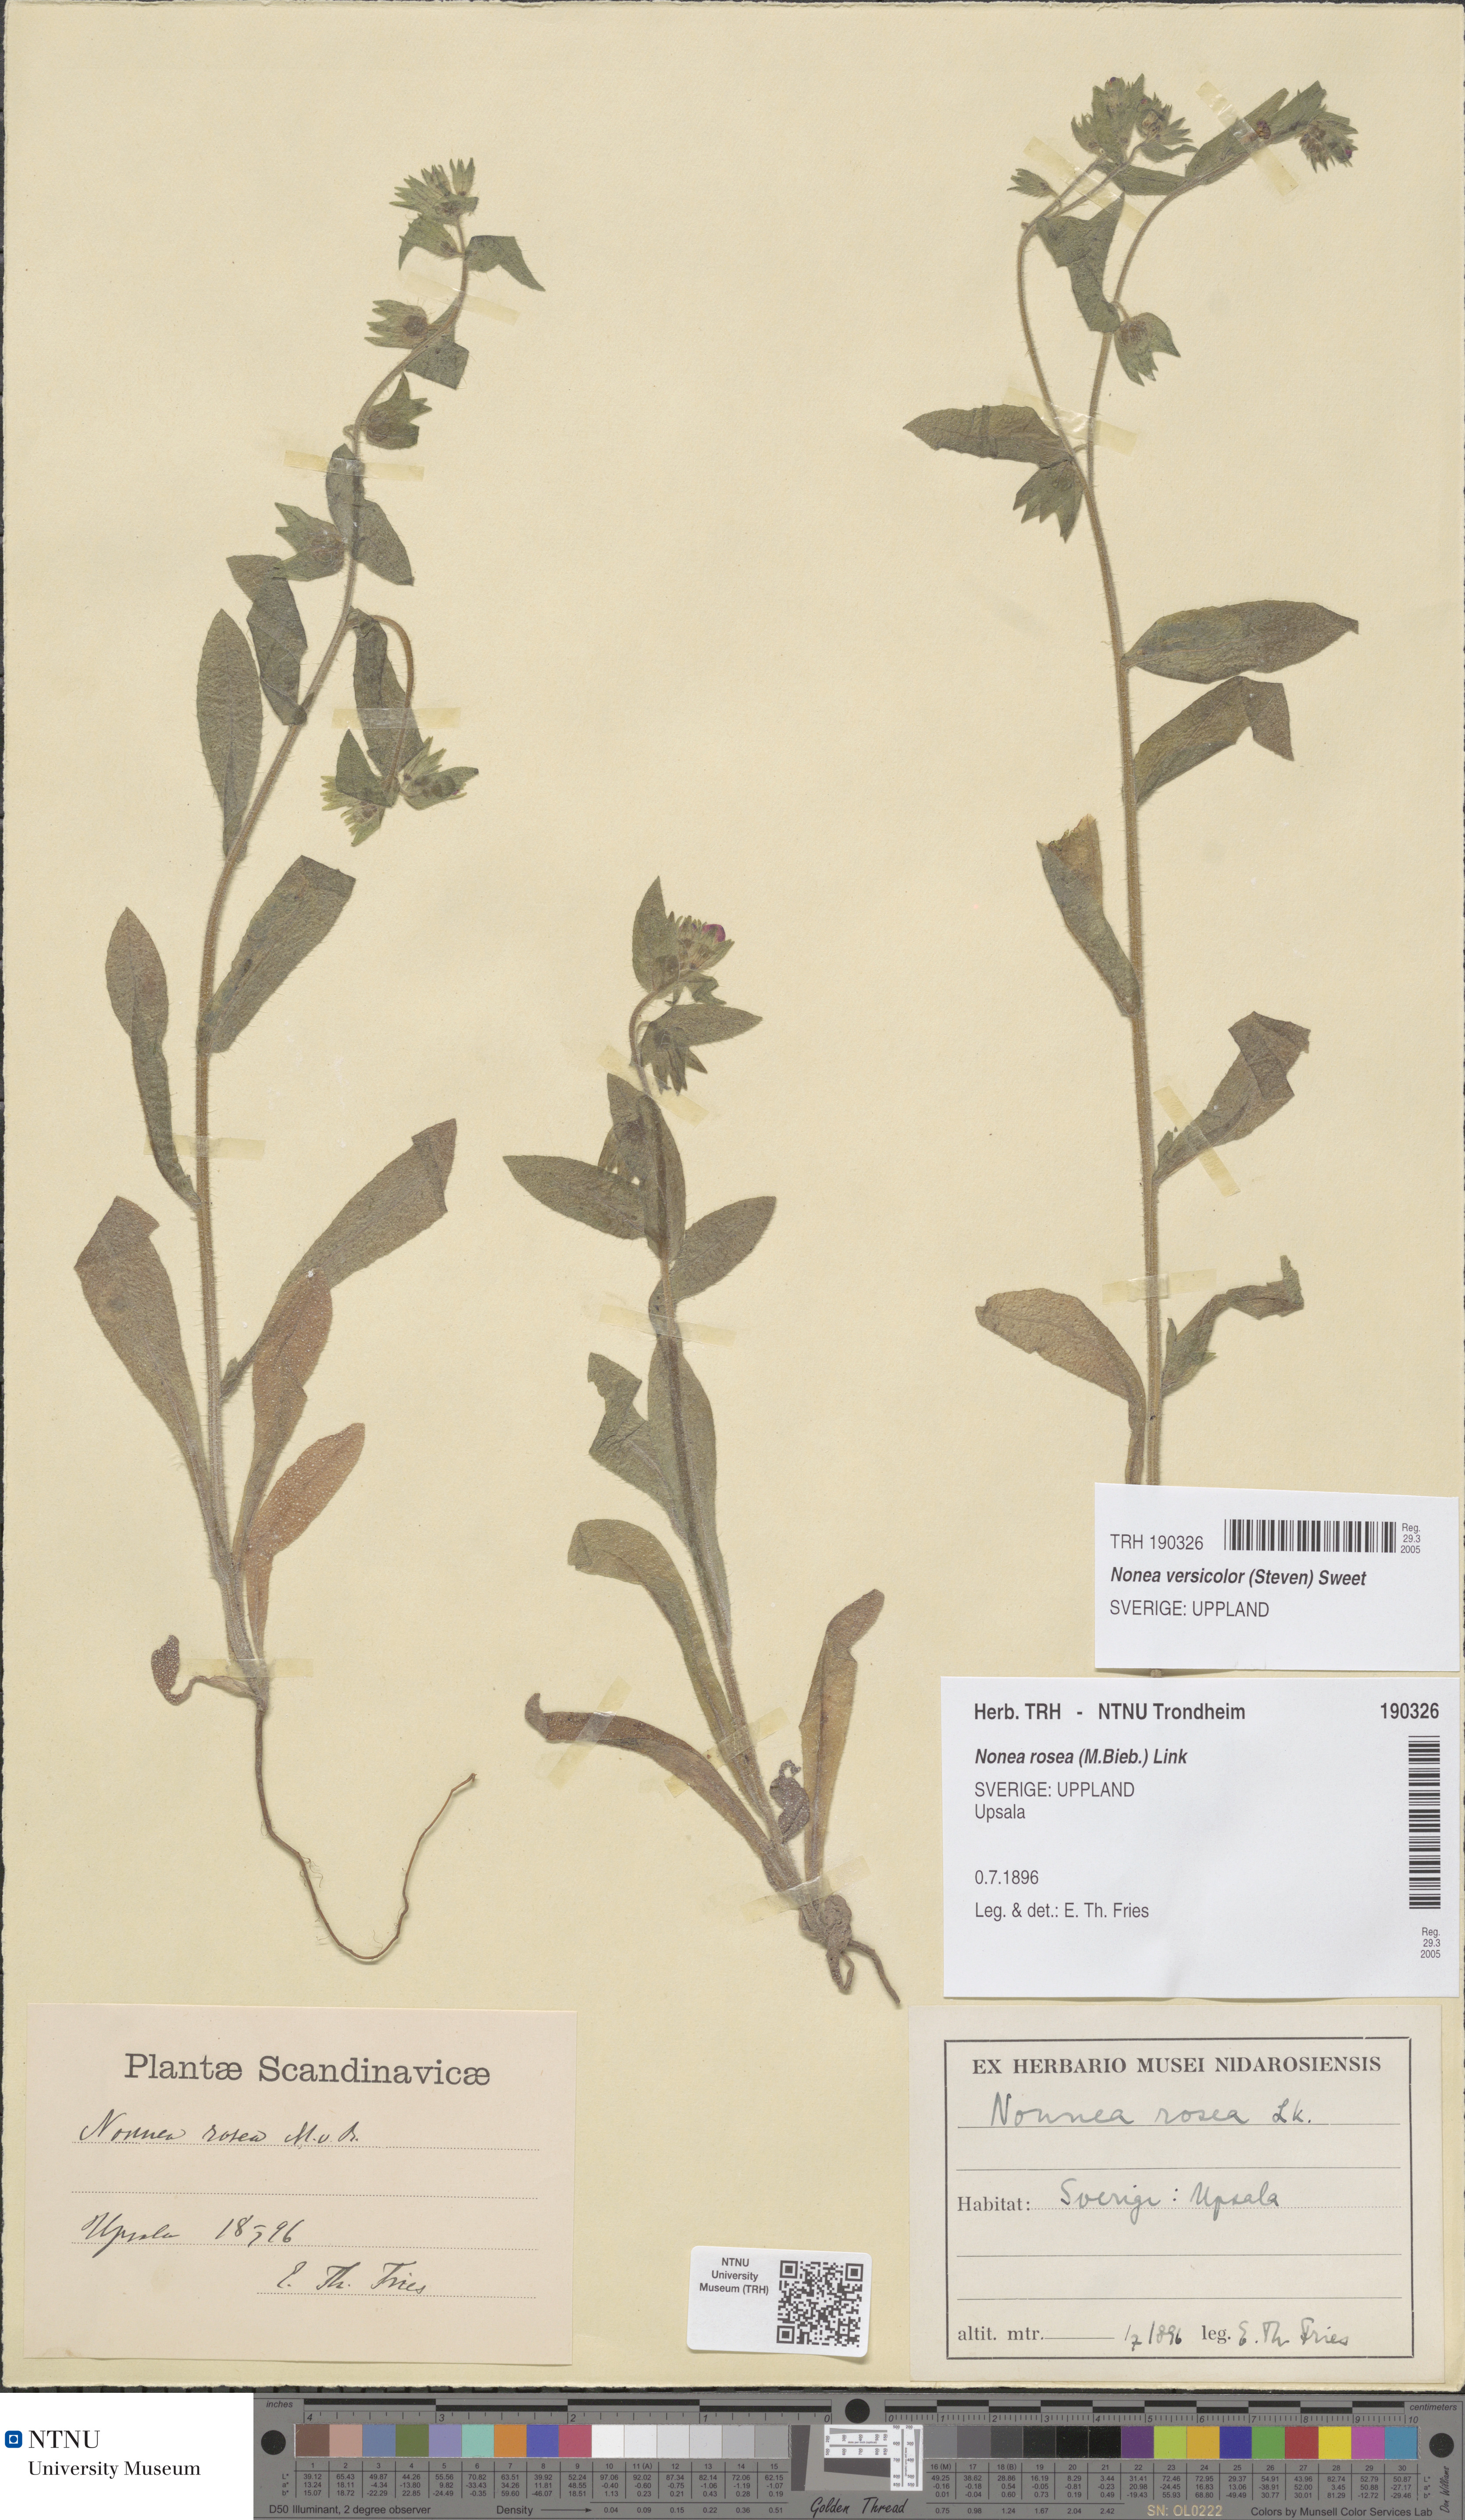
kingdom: Plantae
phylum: Tracheophyta
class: Magnoliopsida
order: Boraginales
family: Boraginaceae
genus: Nonea
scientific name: Nonea versicolor
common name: Varied monkswort
